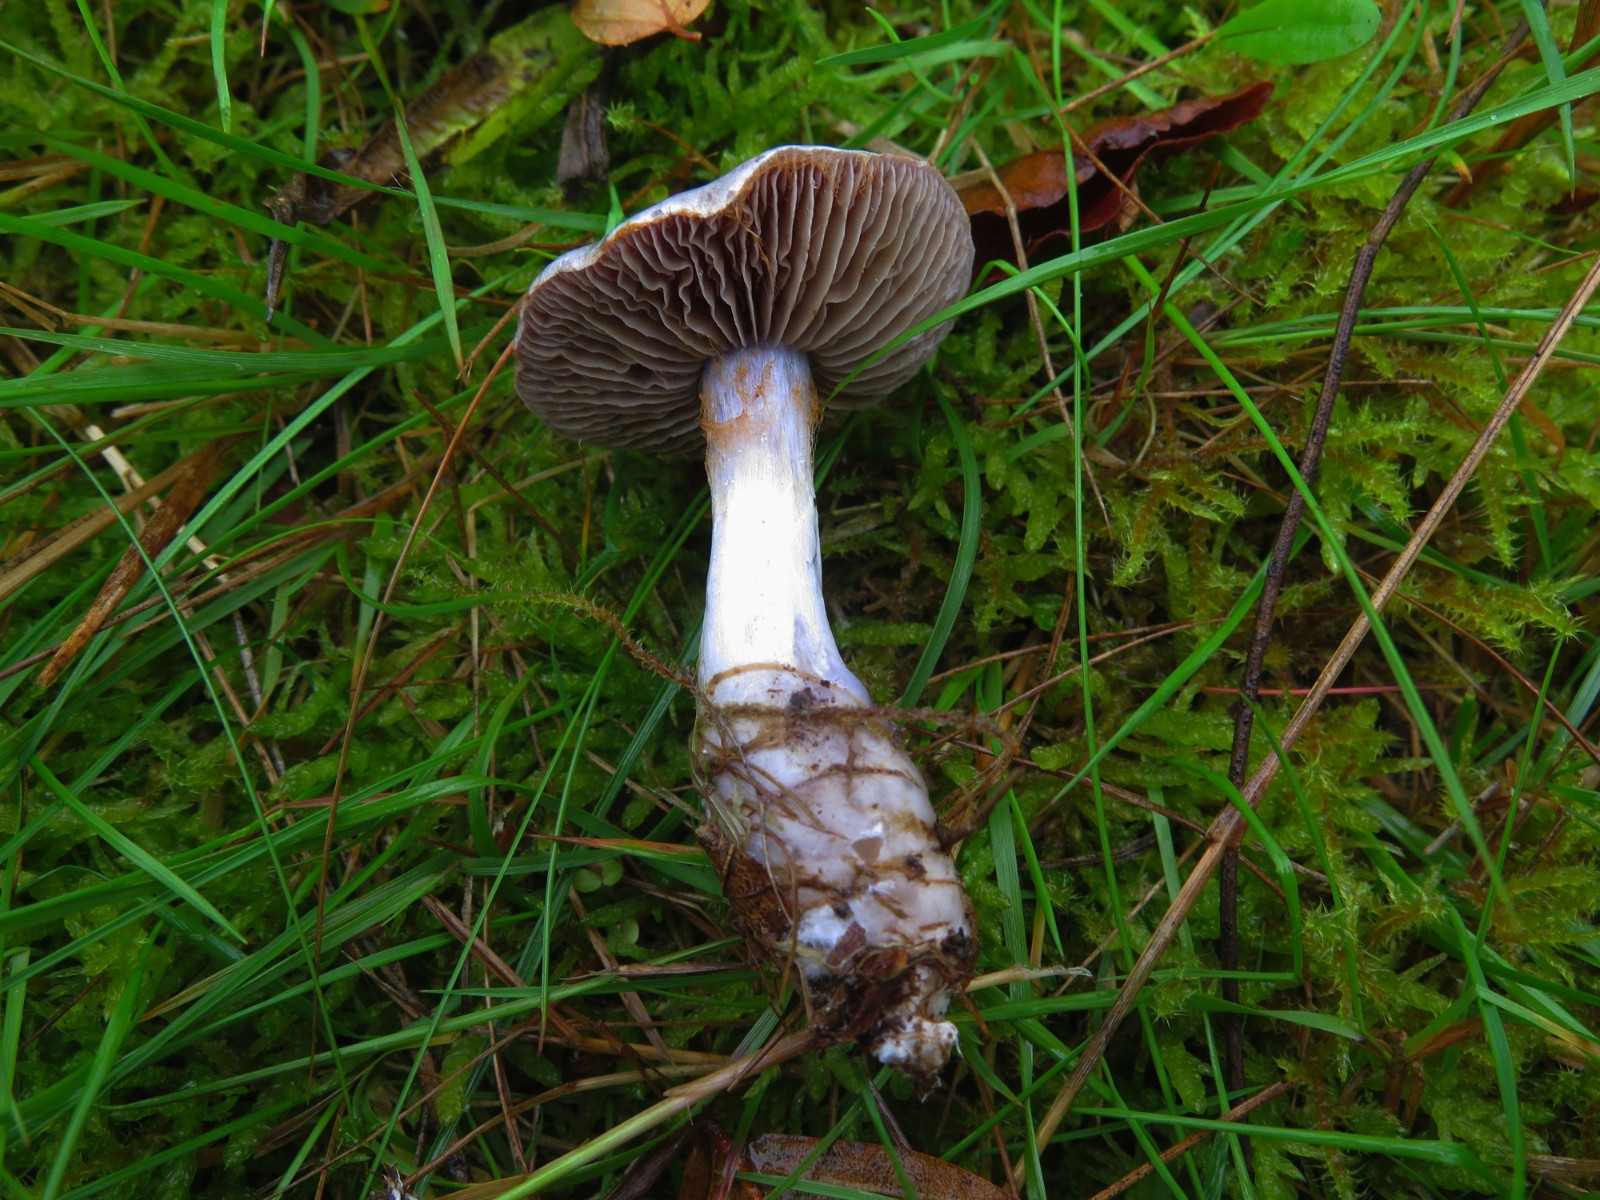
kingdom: Fungi
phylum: Basidiomycota
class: Agaricomycetes
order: Agaricales
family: Cortinariaceae
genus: Cortinarius
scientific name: Cortinarius alboviolaceus
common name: lysviolet slørhat
